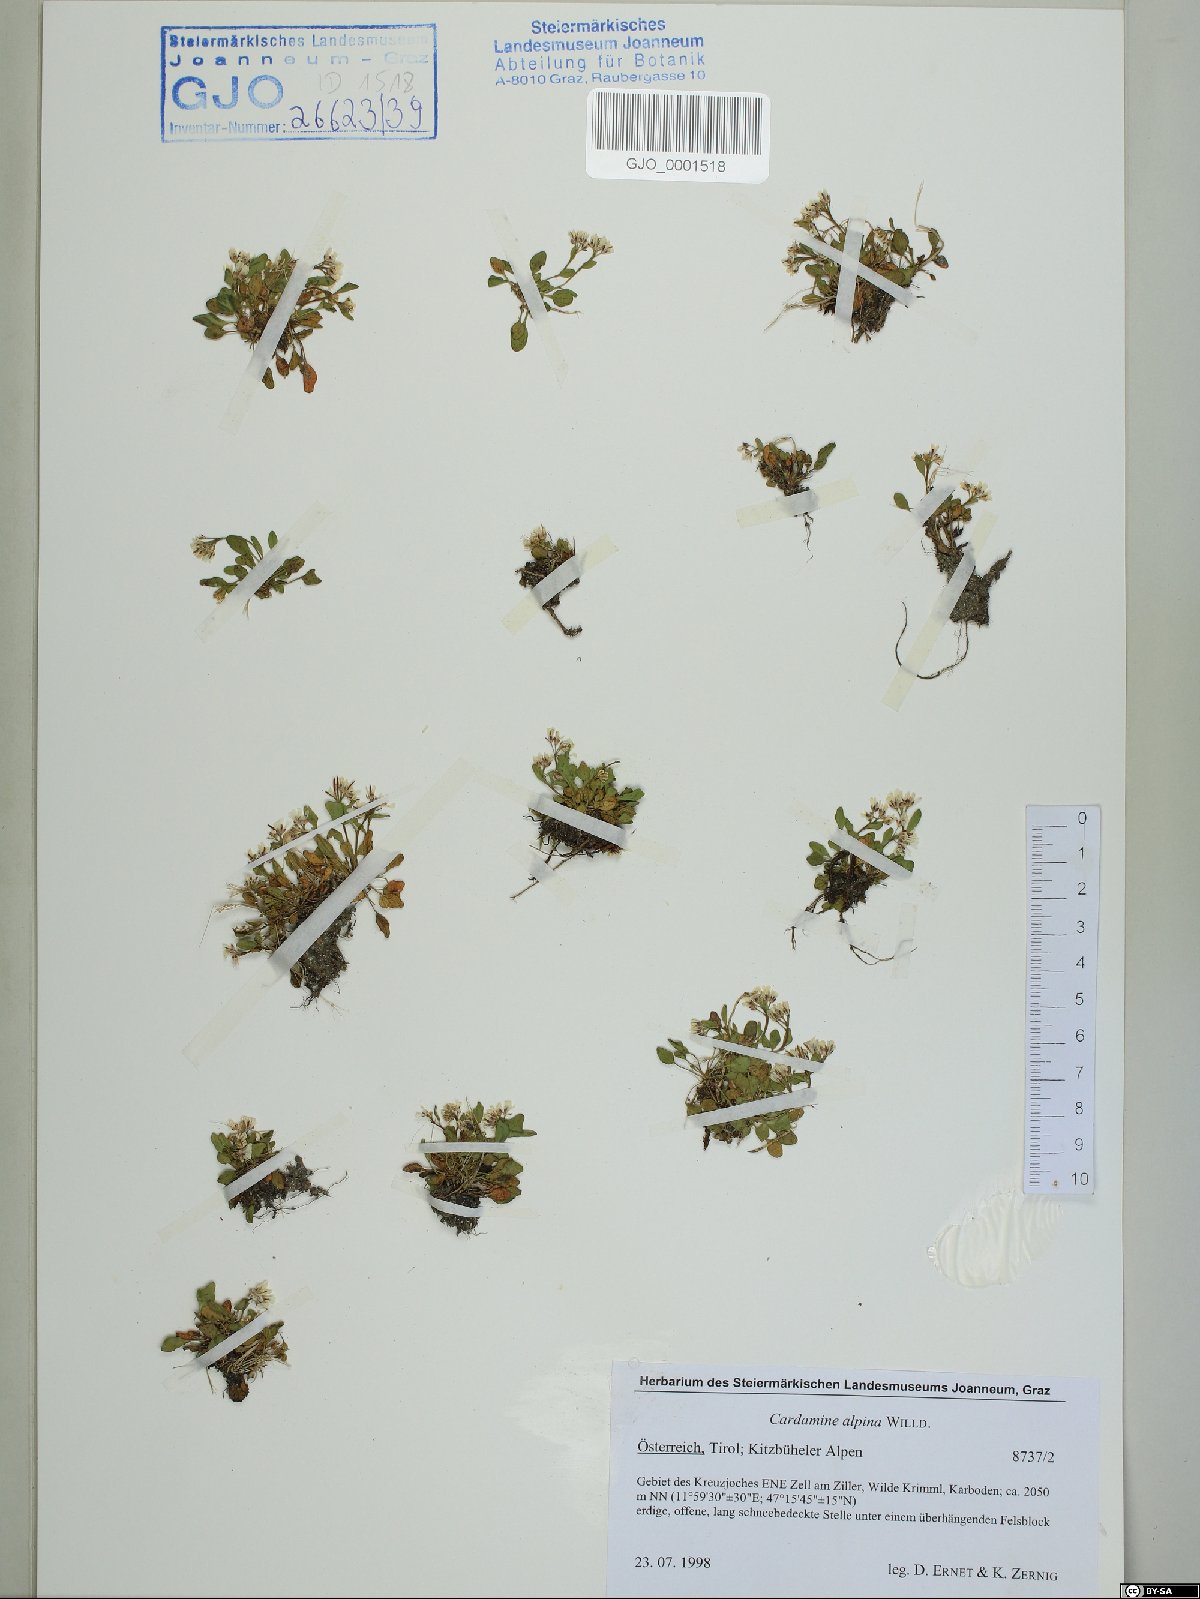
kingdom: Plantae
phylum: Tracheophyta
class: Magnoliopsida
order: Brassicales
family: Brassicaceae
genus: Cardamine
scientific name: Cardamine bellidifolia
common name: Alpine bittercress
